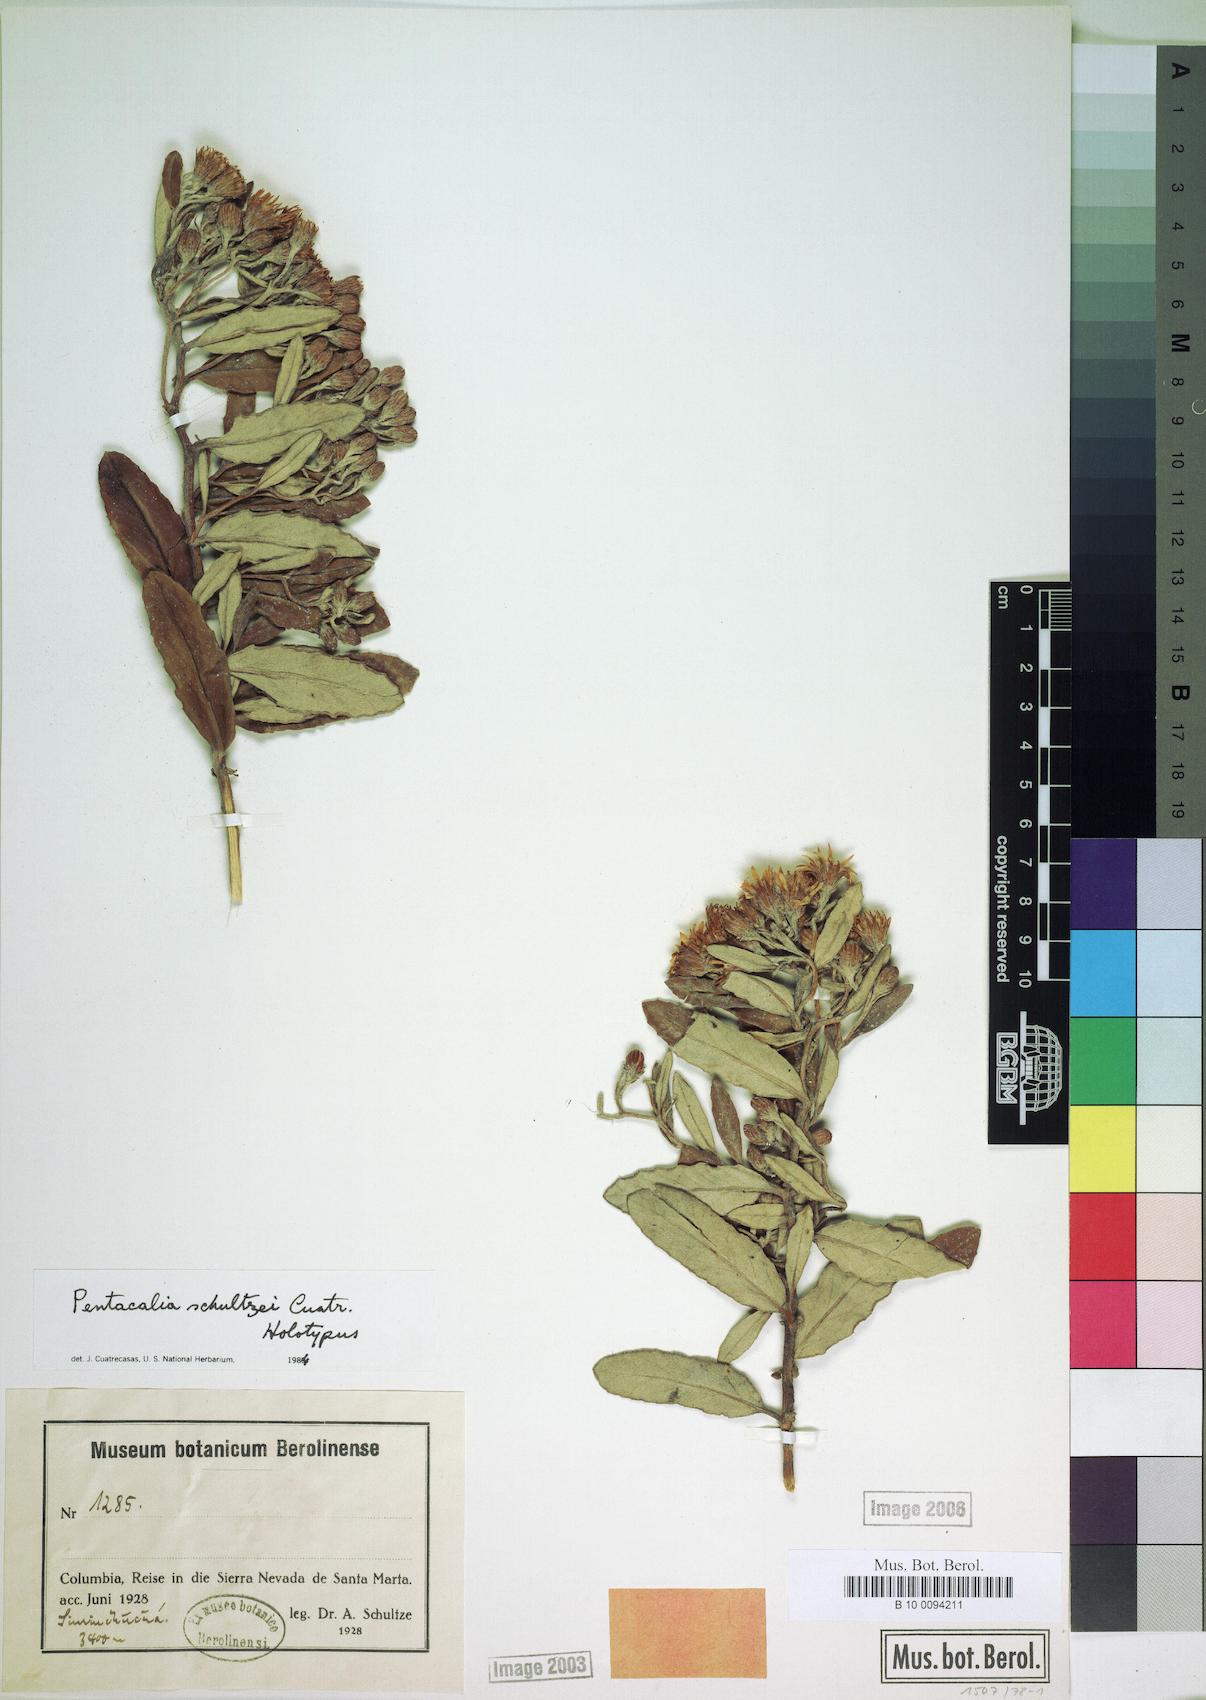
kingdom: Plantae
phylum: Tracheophyta
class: Magnoliopsida
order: Asterales
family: Asteraceae
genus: Monticalia
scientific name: Monticalia schultzei
